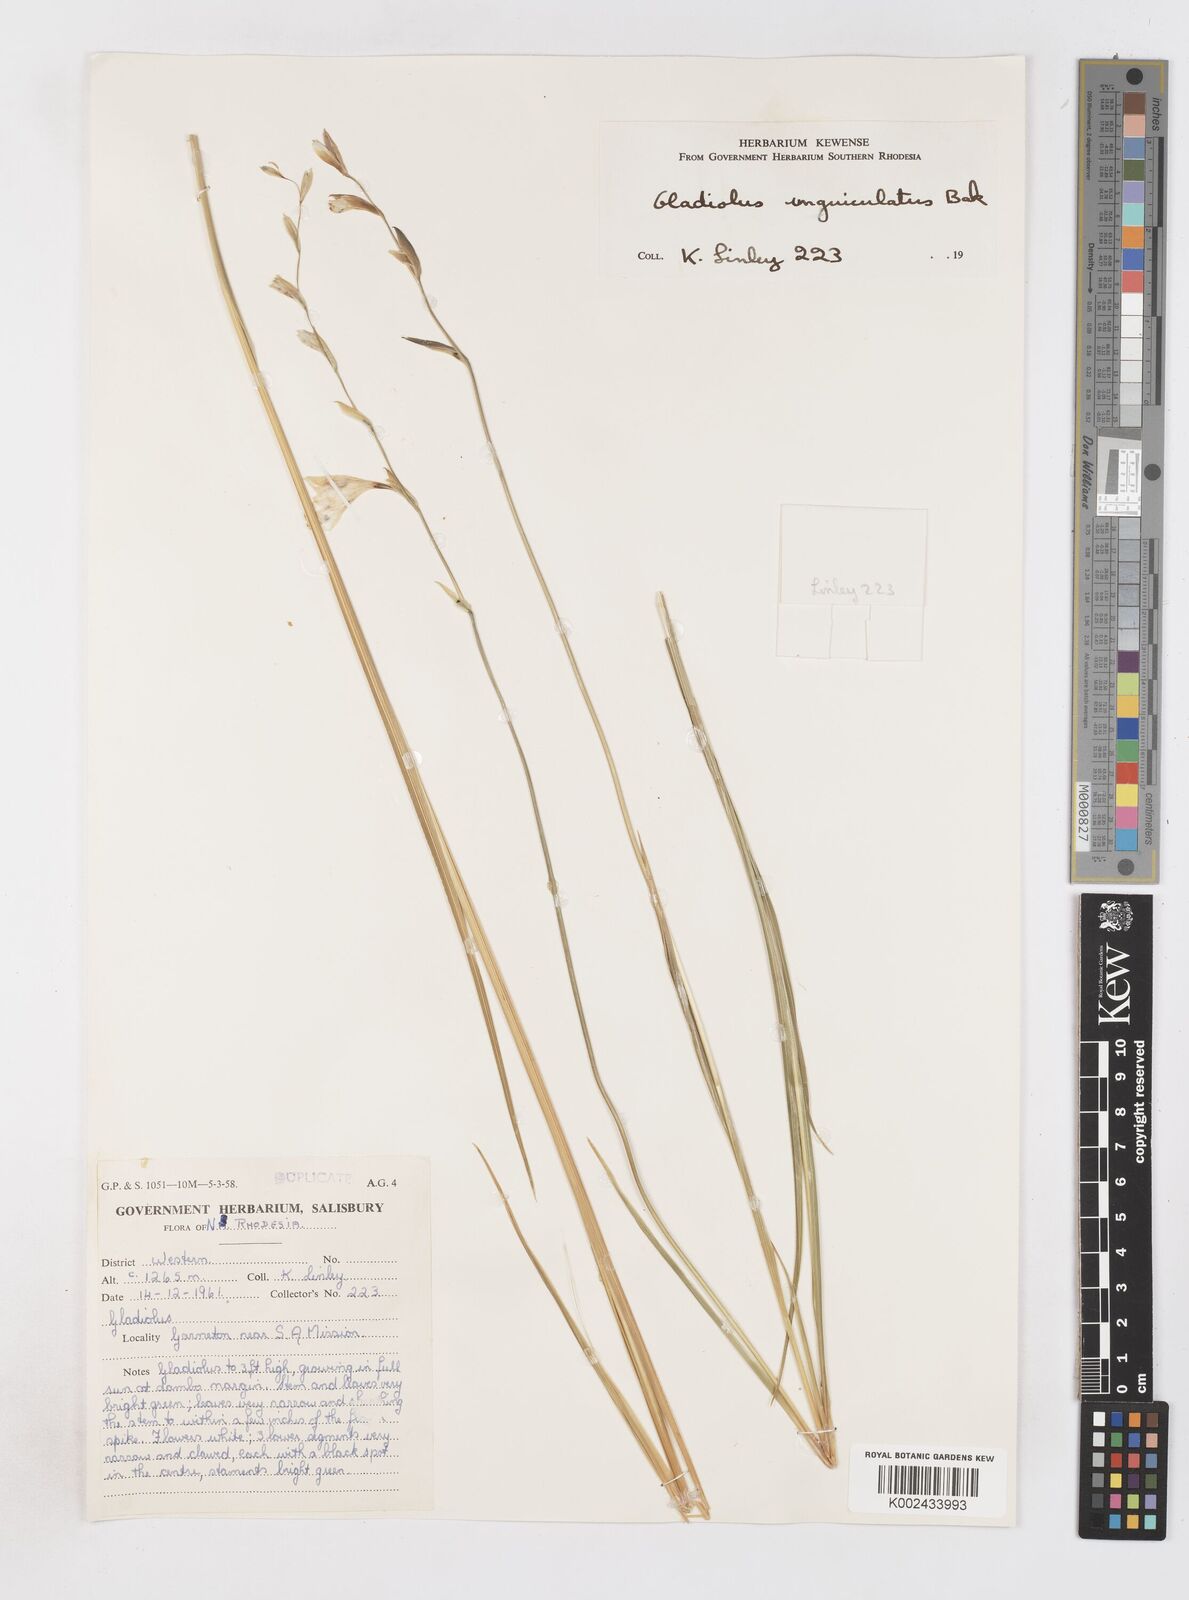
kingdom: Plantae
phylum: Tracheophyta
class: Liliopsida
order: Asparagales
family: Iridaceae
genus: Gladiolus
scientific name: Gladiolus atropurpureus
